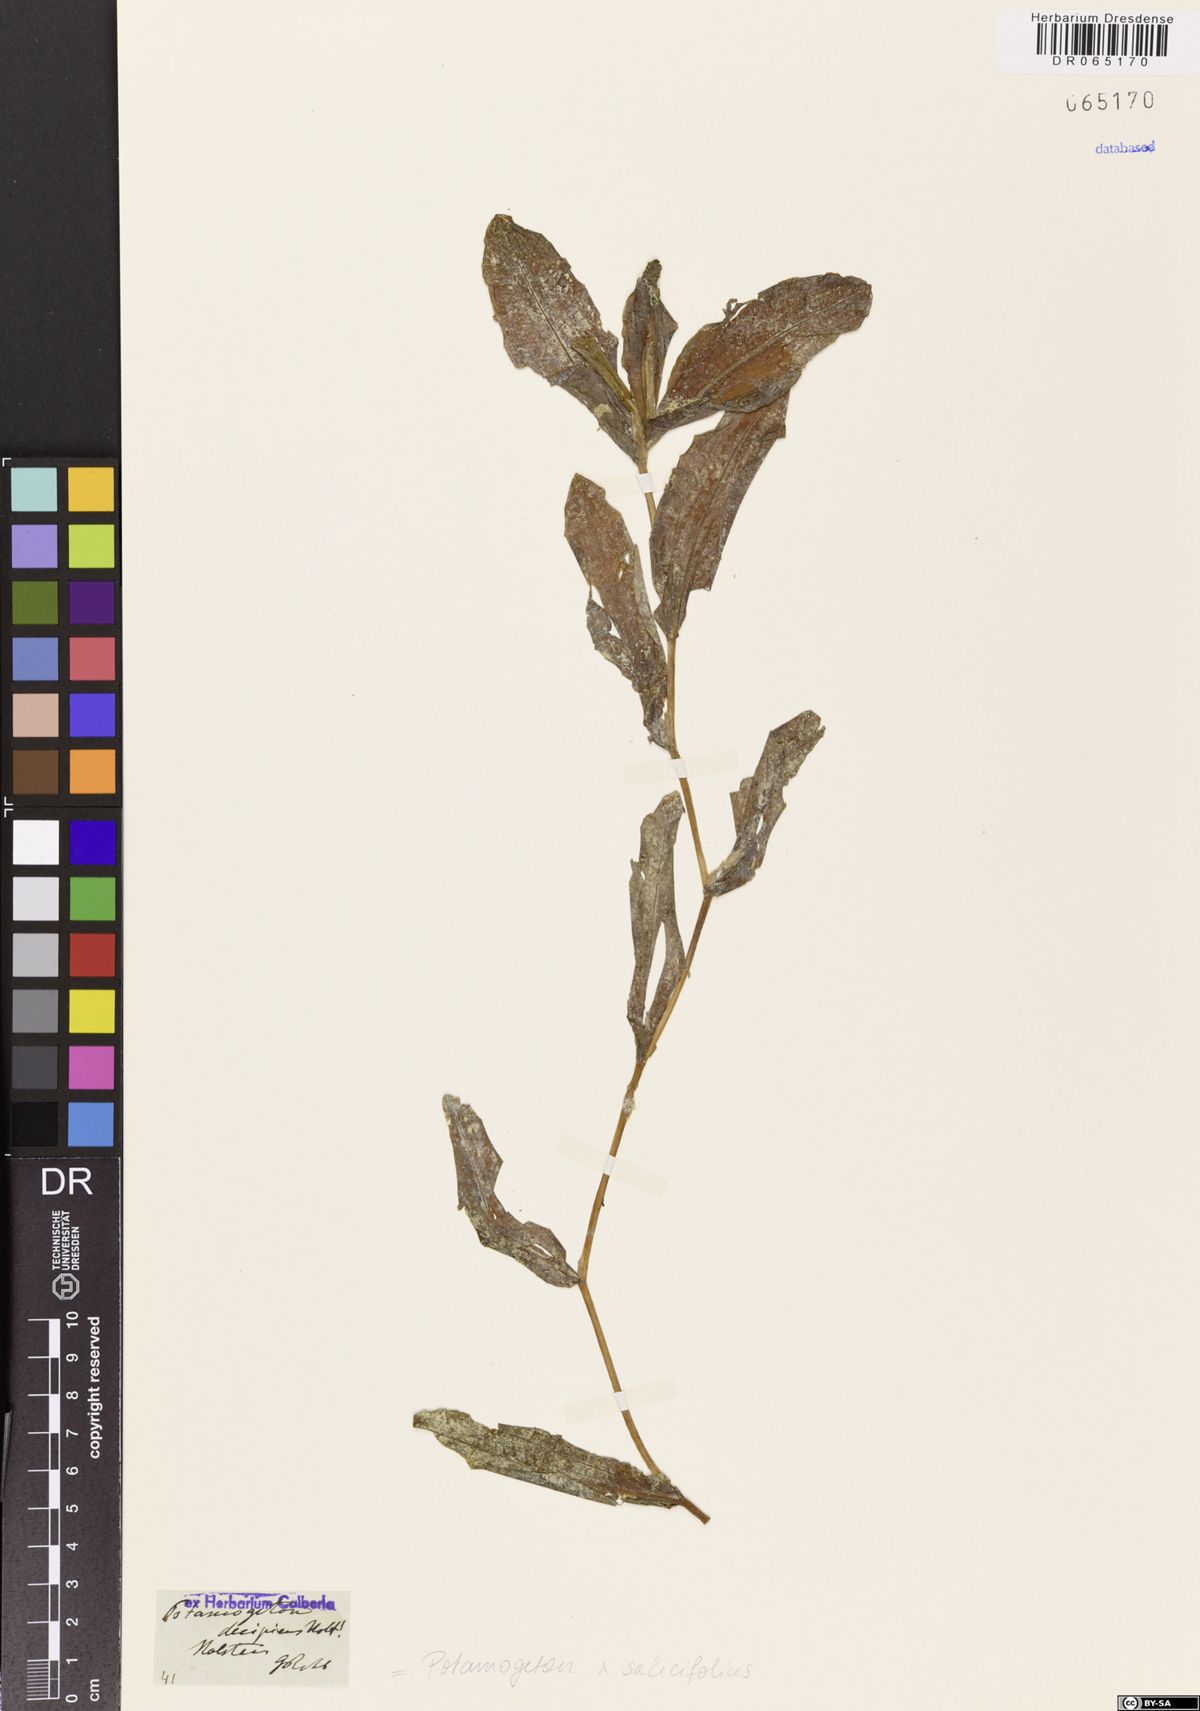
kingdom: Plantae
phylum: Tracheophyta
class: Liliopsida
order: Alismatales
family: Potamogetonaceae
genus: Potamogeton
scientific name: Potamogeton salicifolius
